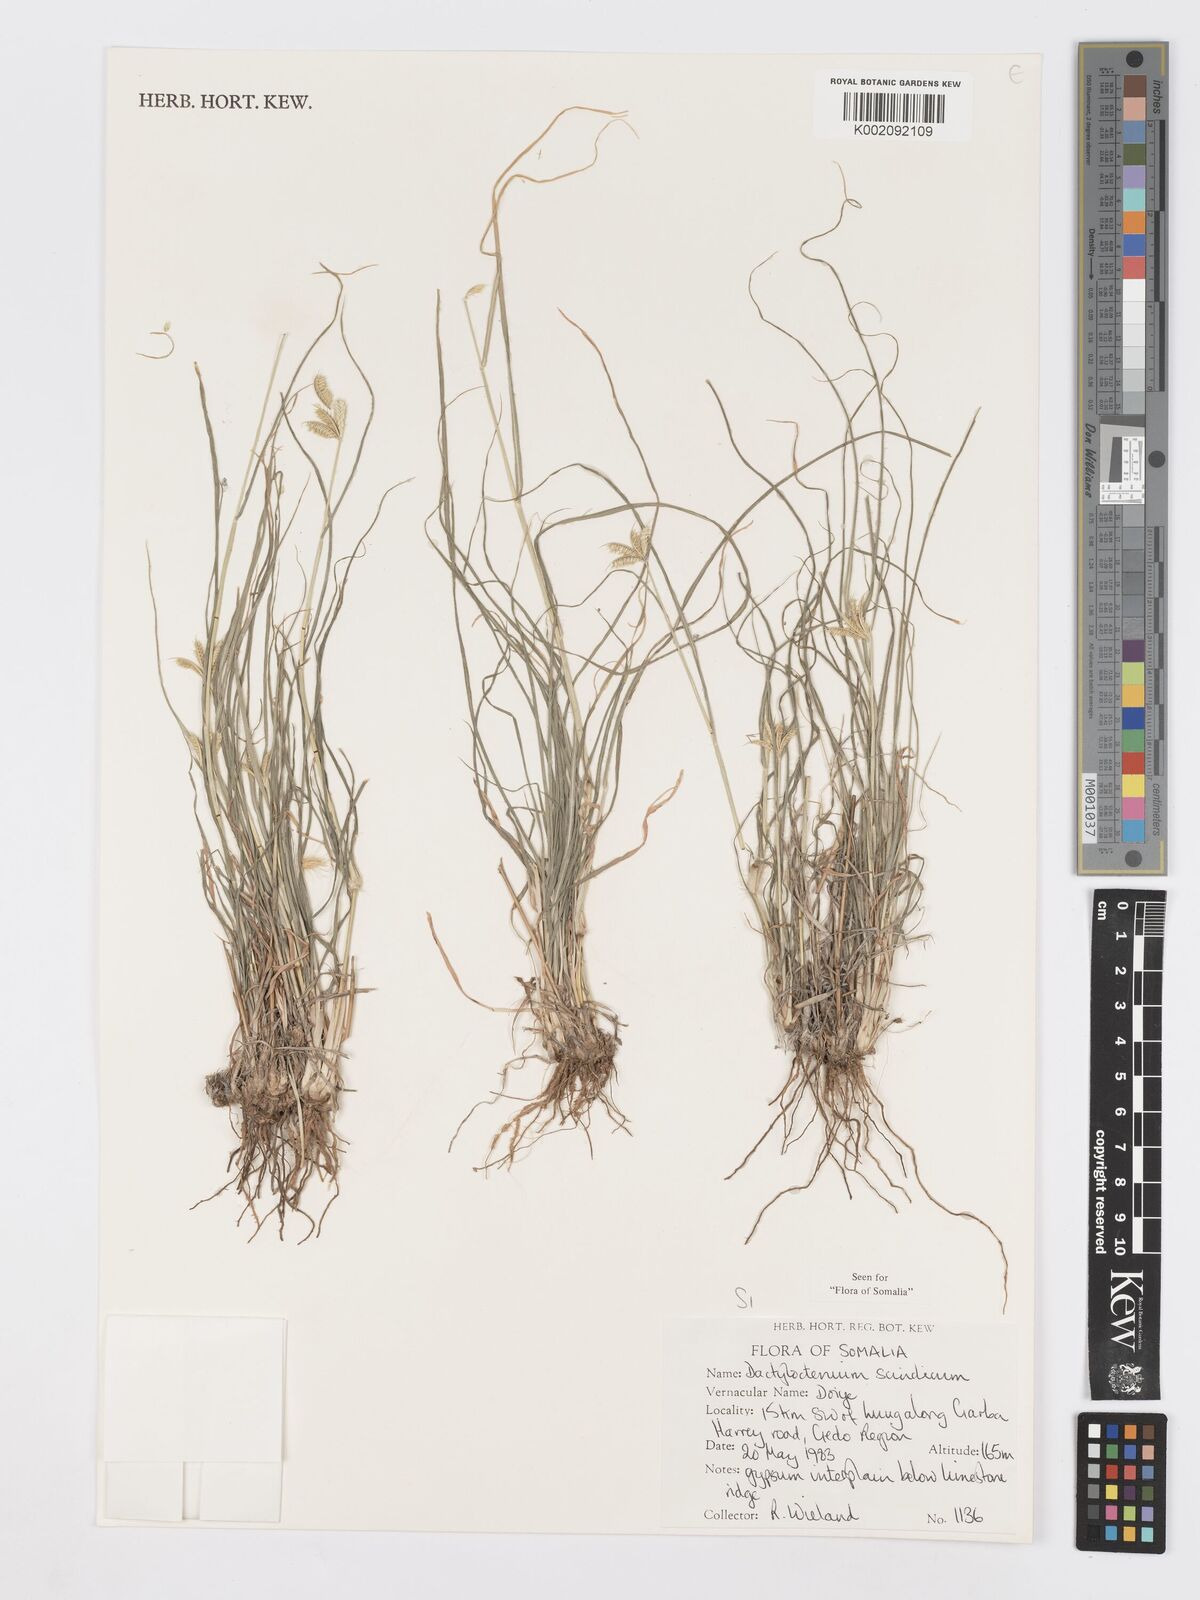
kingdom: Plantae
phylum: Tracheophyta
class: Liliopsida
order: Poales
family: Poaceae
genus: Dactyloctenium
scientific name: Dactyloctenium scindicum
